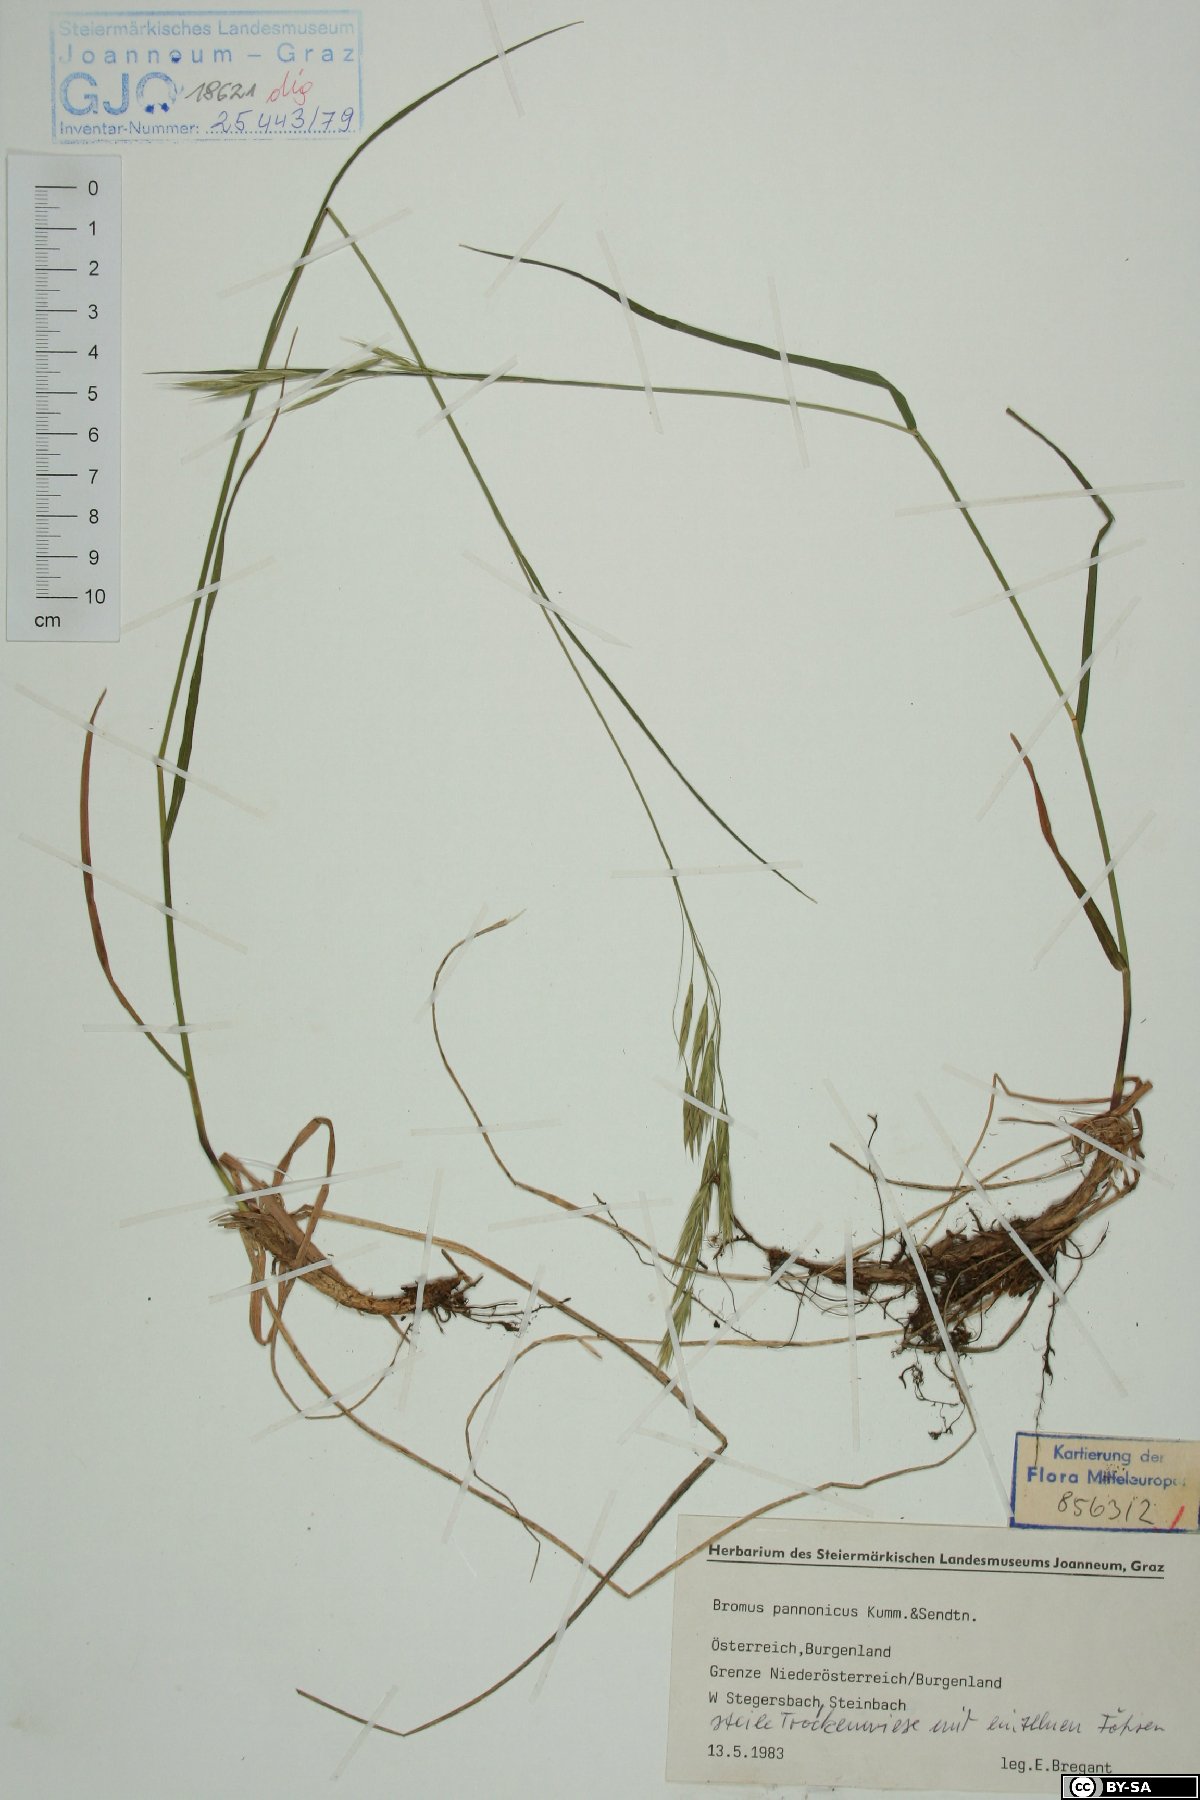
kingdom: Plantae
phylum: Tracheophyta
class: Liliopsida
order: Poales
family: Poaceae
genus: Bromus
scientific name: Bromus pannonicus
